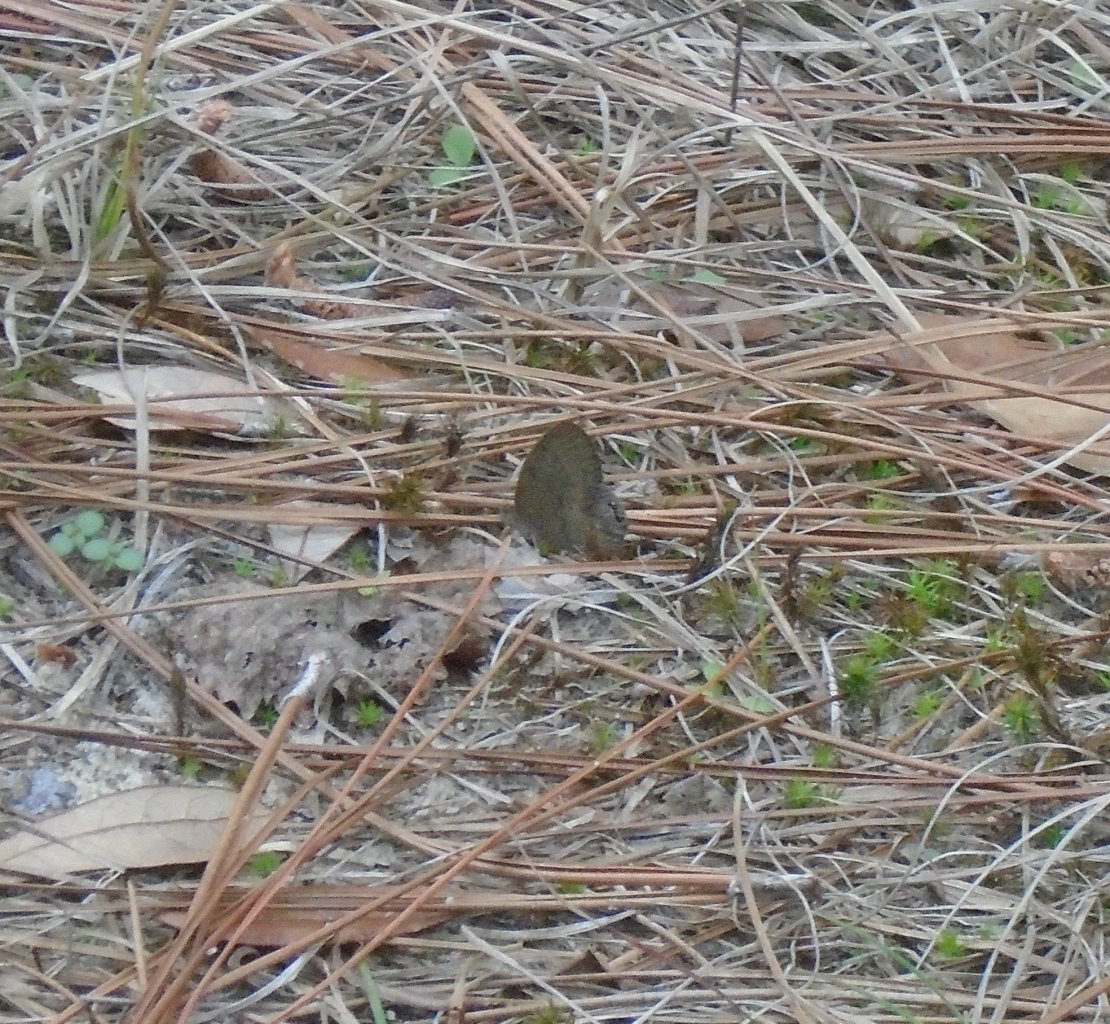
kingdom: Animalia
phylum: Arthropoda
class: Insecta
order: Lepidoptera
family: Nymphalidae
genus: Euptychia
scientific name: Euptychia cornelius
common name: Gemmed Satyr
